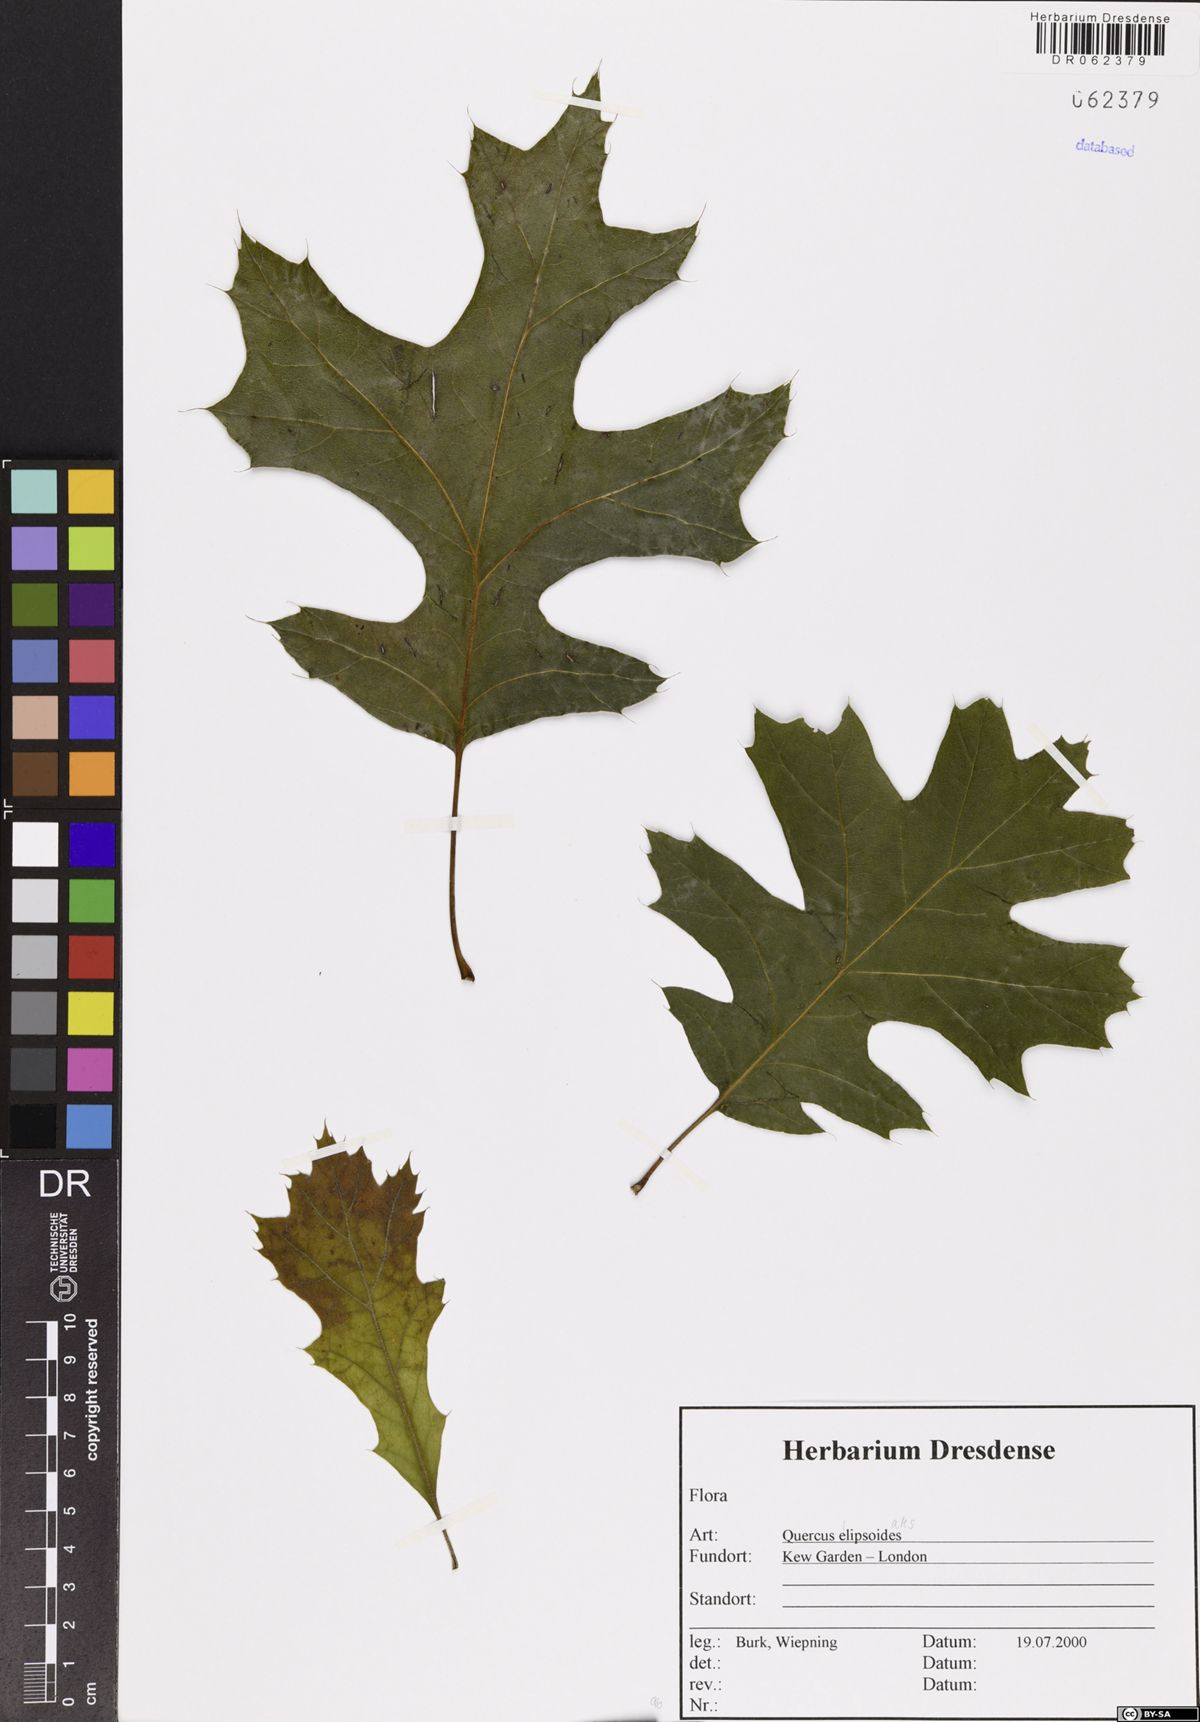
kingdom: Plantae
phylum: Tracheophyta
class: Magnoliopsida
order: Fagales
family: Fagaceae
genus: Quercus
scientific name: Quercus ellipsoidalis
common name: Hill's oak
